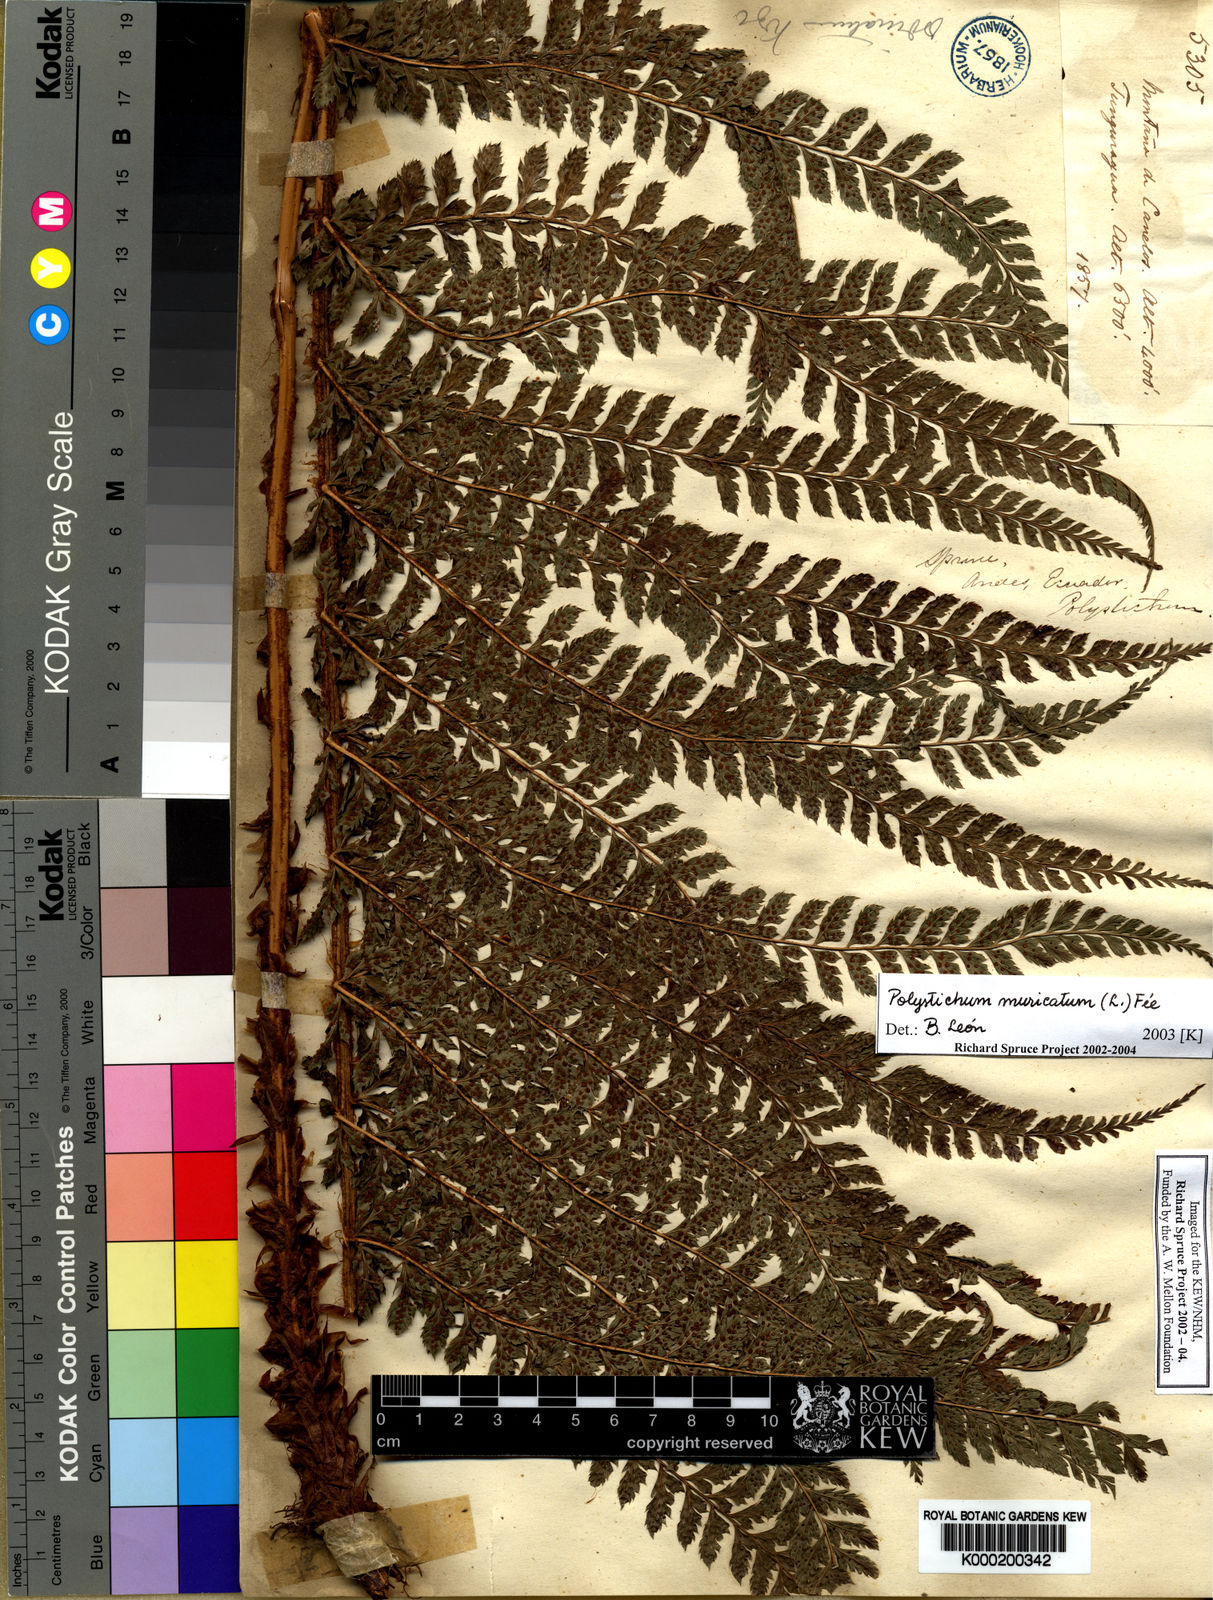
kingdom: Plantae
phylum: Tracheophyta
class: Polypodiopsida
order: Polypodiales
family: Dryopteridaceae
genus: Polystichum
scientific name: Polystichum
